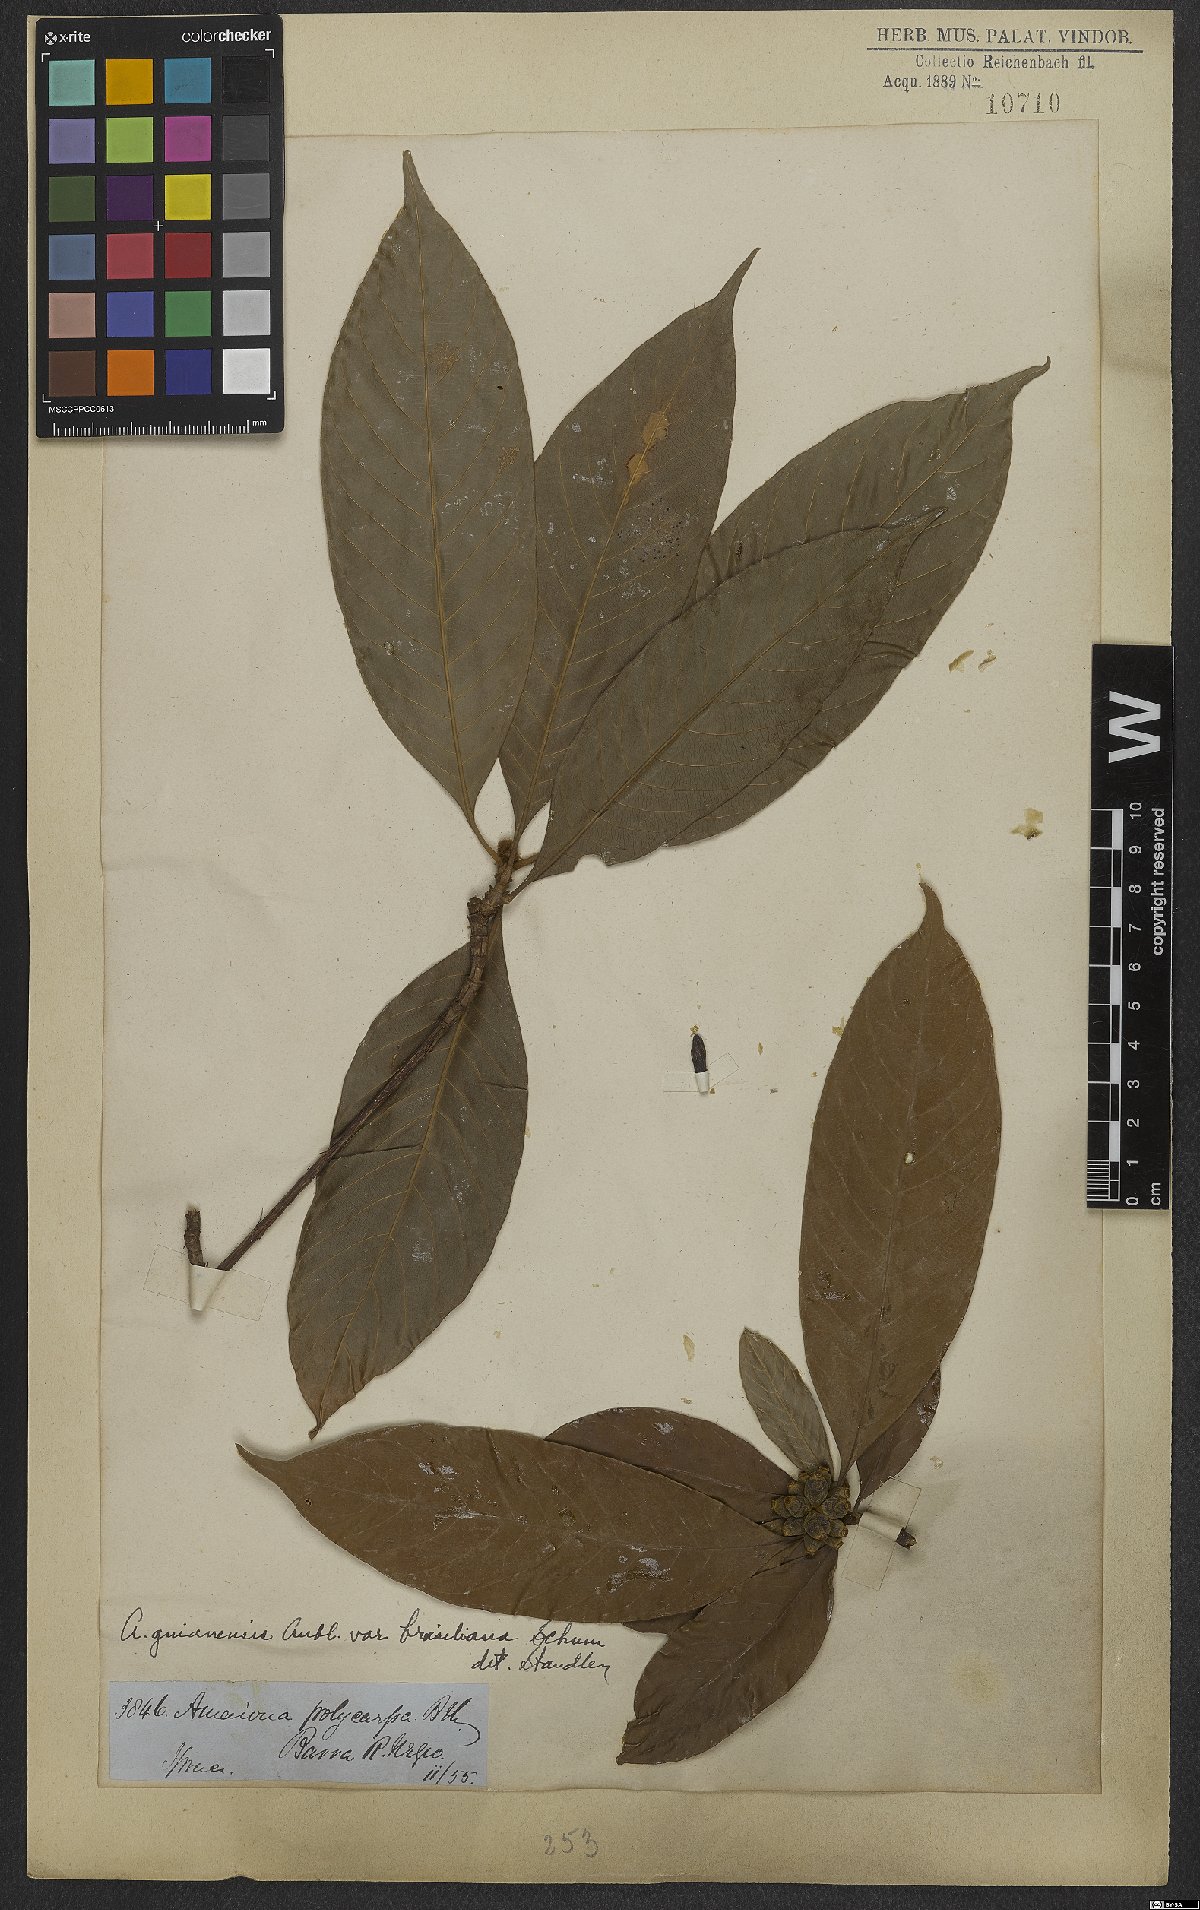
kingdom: Plantae
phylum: Tracheophyta
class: Magnoliopsida
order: Gentianales
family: Rubiaceae
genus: Amaioua
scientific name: Amaioua guianensis
